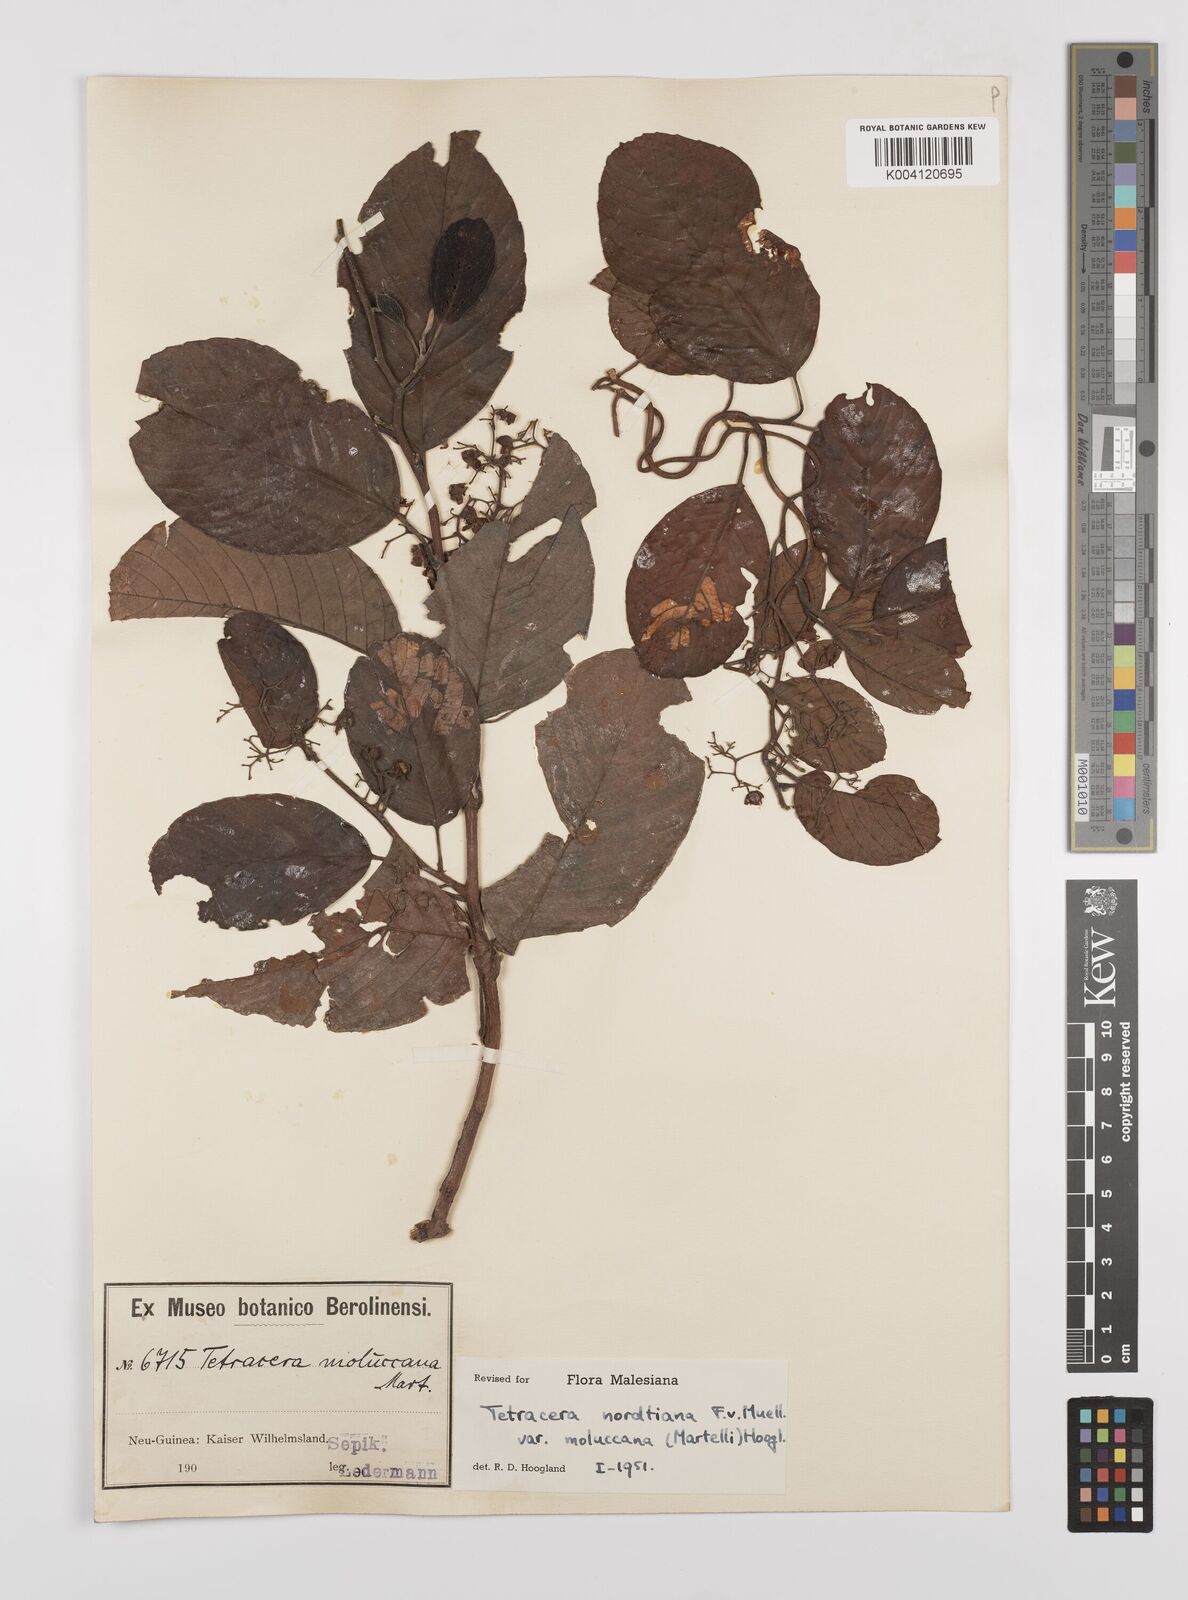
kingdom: Plantae
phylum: Tracheophyta
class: Magnoliopsida
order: Dilleniales
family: Dilleniaceae
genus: Tetracera
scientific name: Tetracera nordtiana
